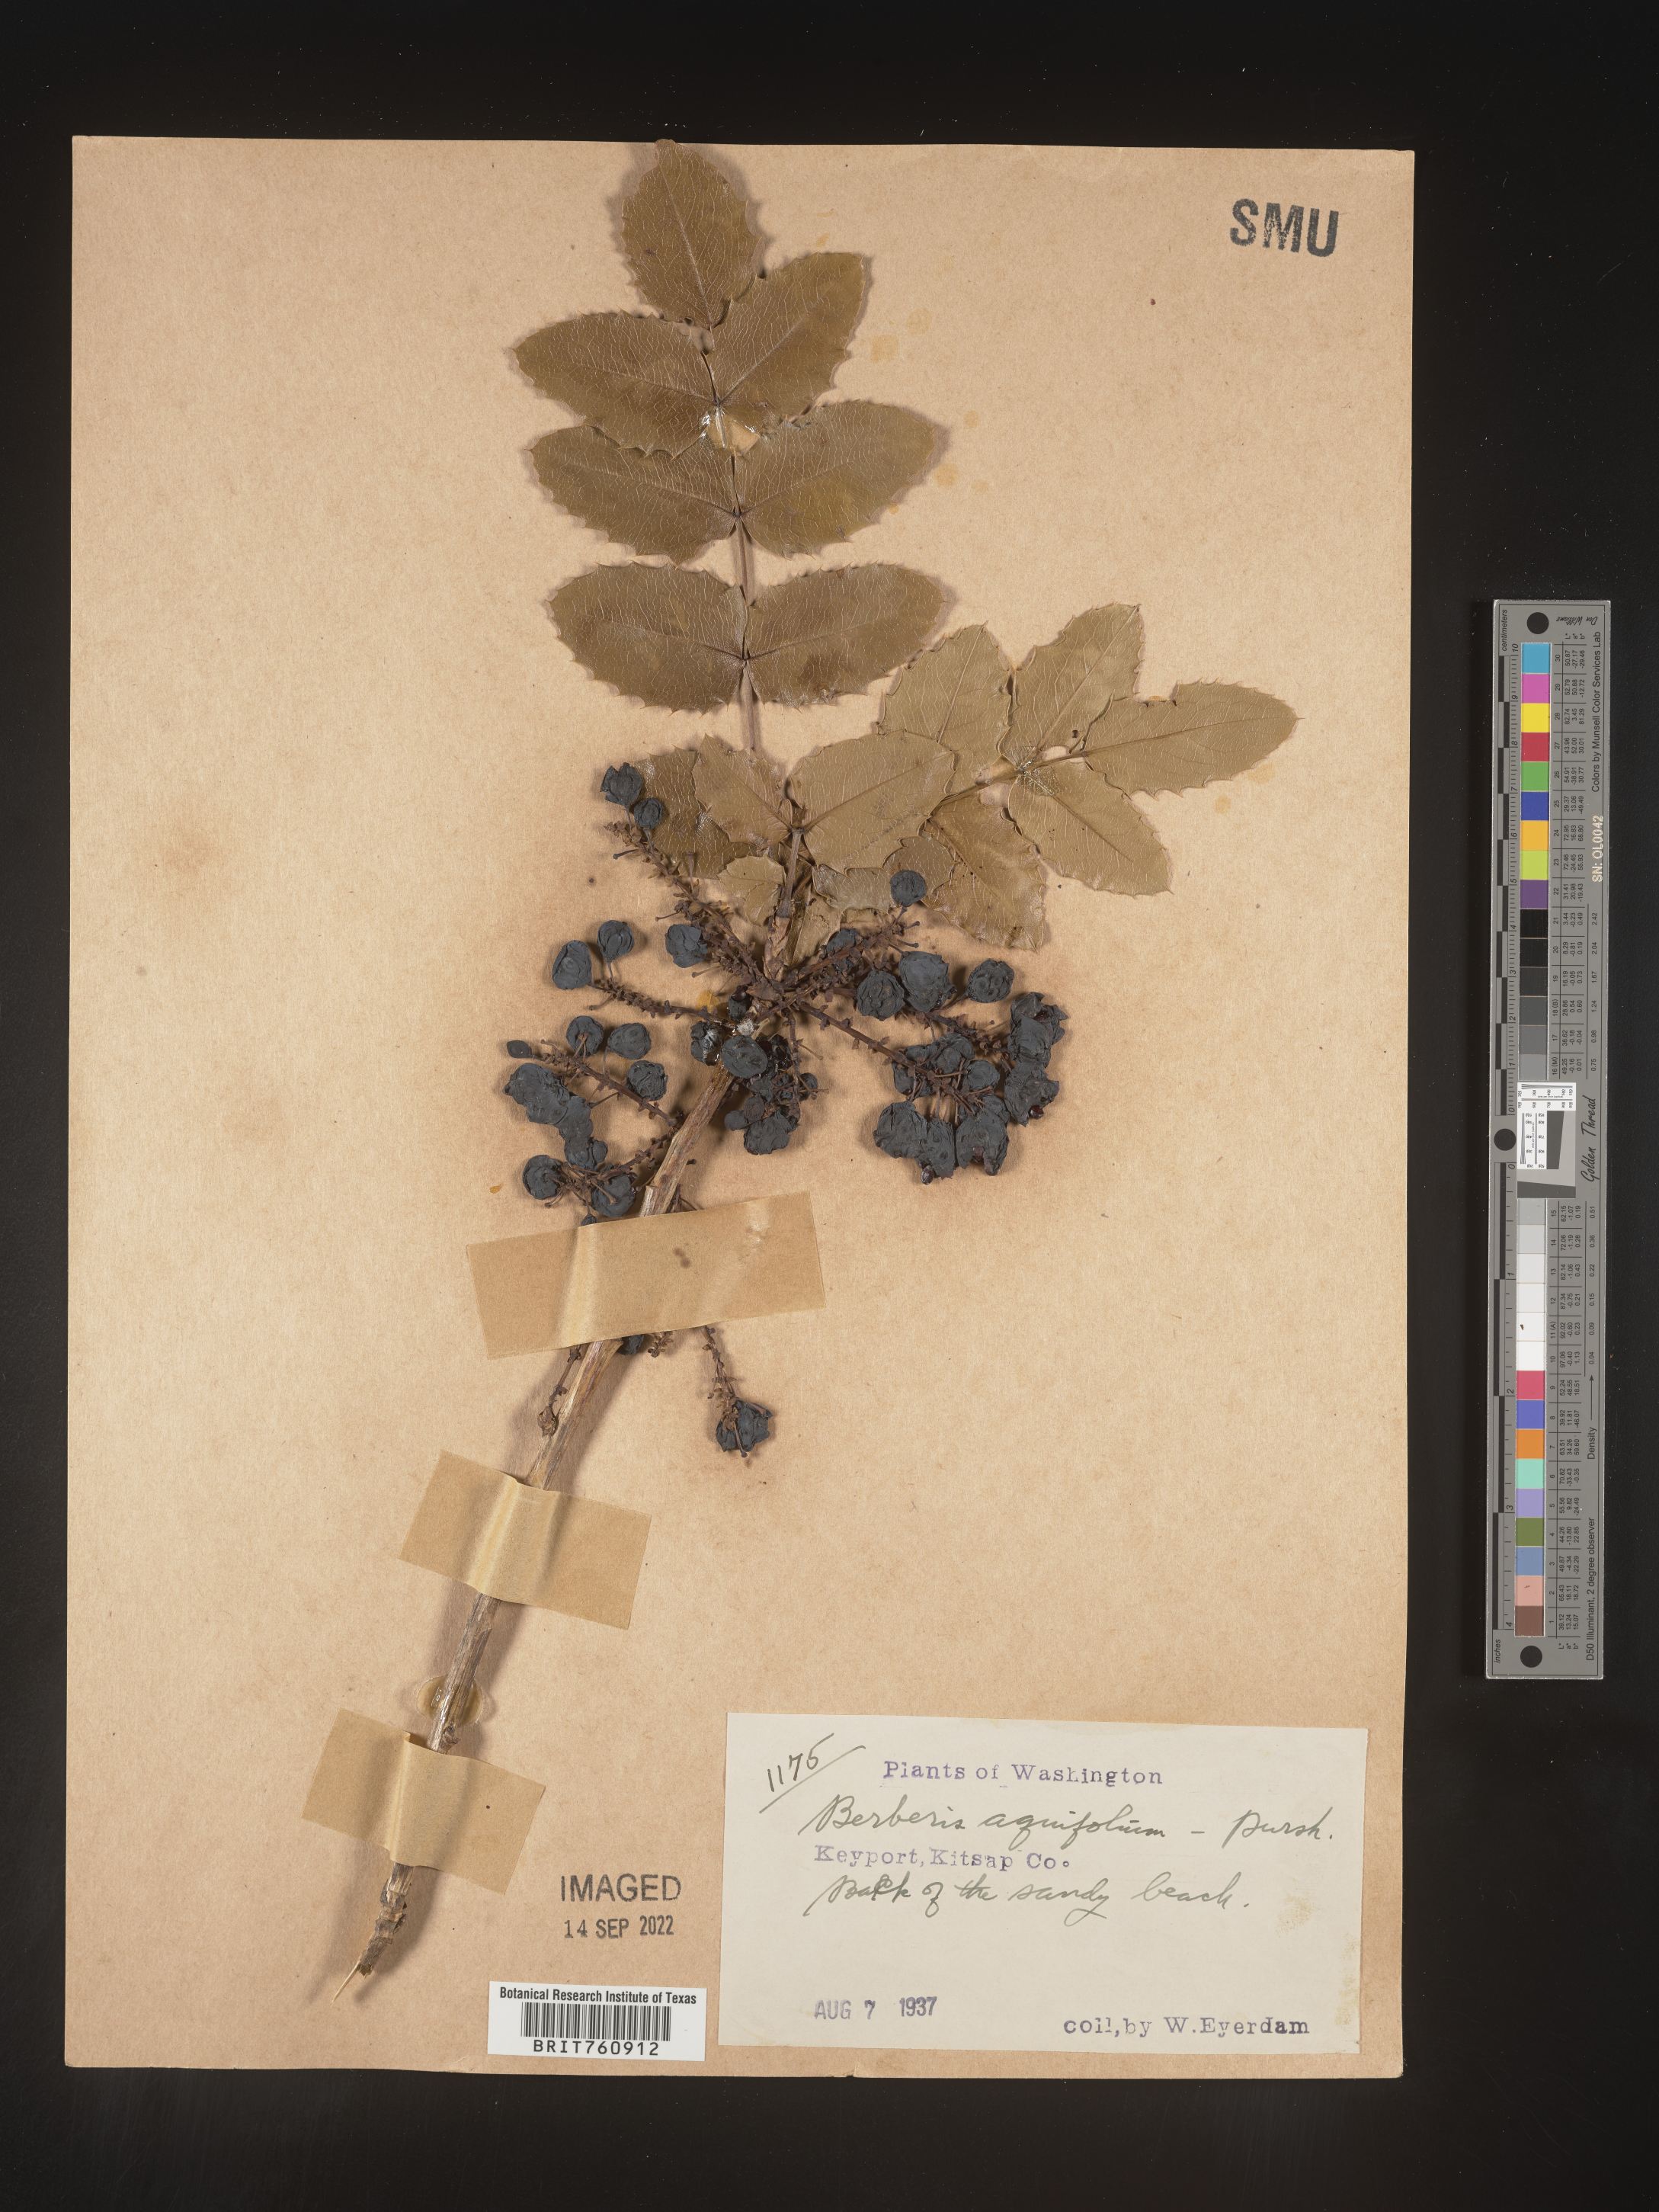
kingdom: Plantae
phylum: Tracheophyta
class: Magnoliopsida
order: Ranunculales
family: Berberidaceae
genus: Mahonia
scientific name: Mahonia aquifolium
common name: Oregon-grape
